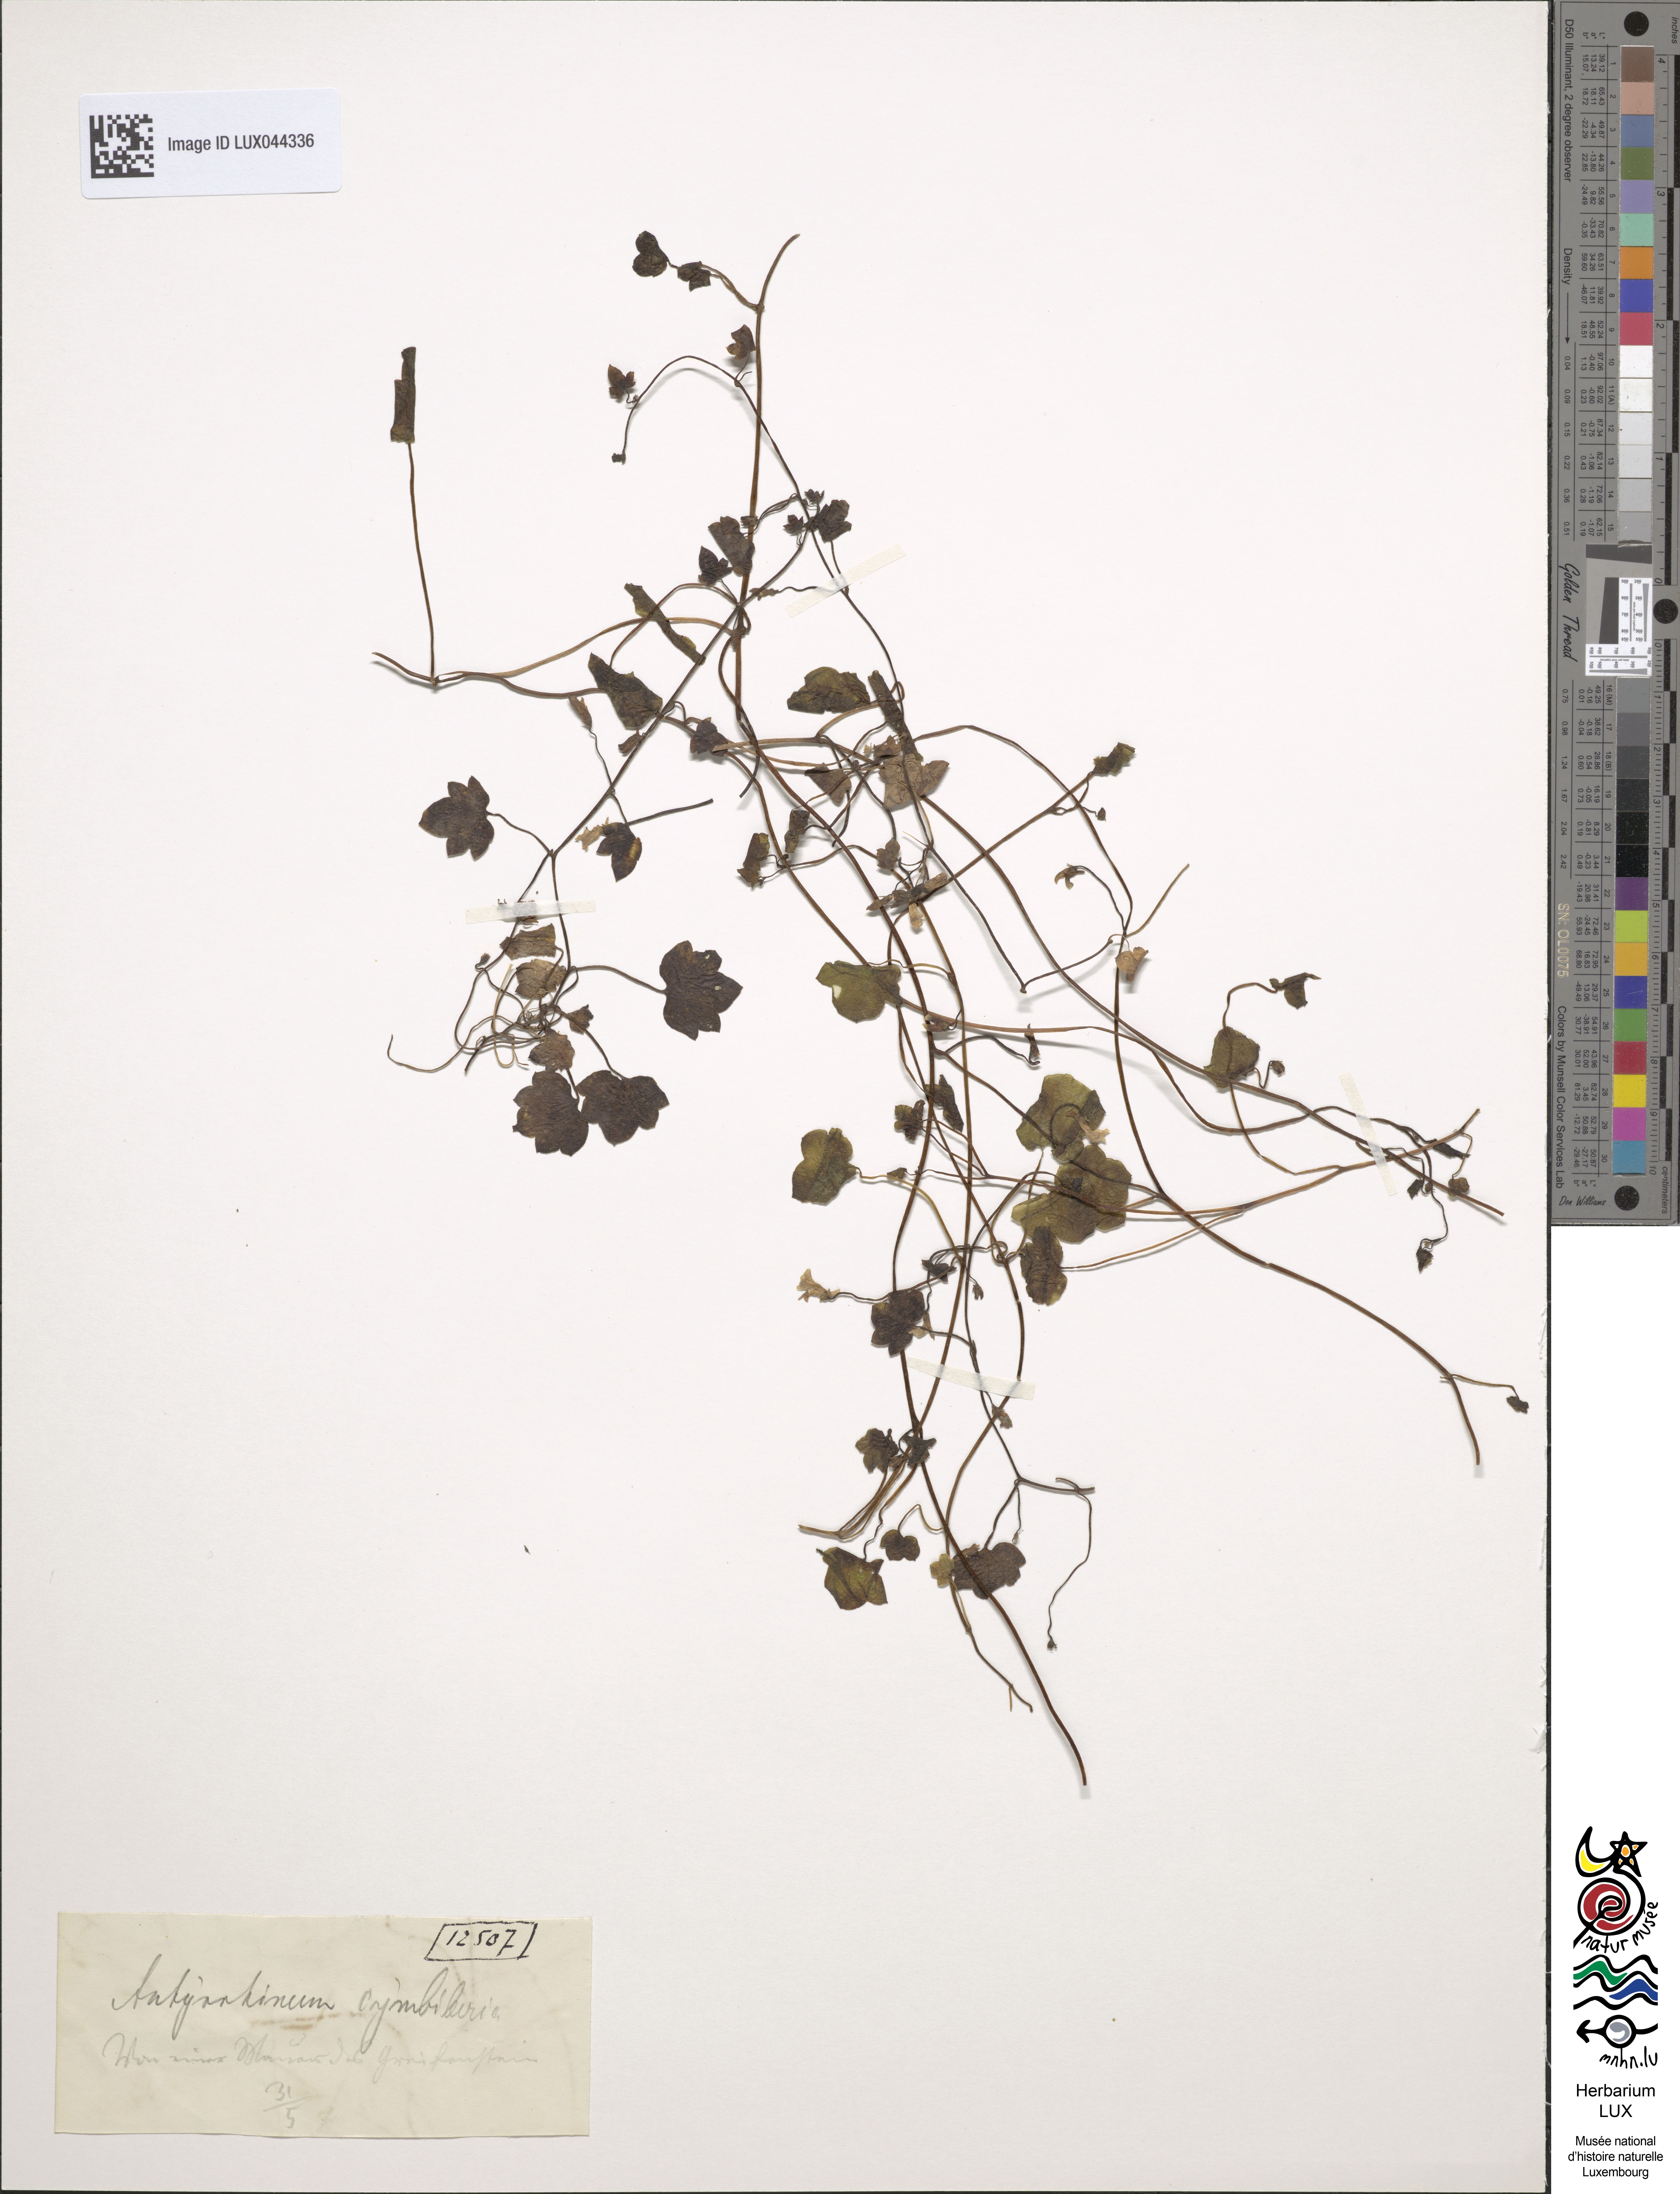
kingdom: Plantae
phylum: Tracheophyta
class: Magnoliopsida
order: Lamiales
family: Plantaginaceae
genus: Cymbalaria
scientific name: Cymbalaria muralis
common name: Ivy-leaved toadflax
